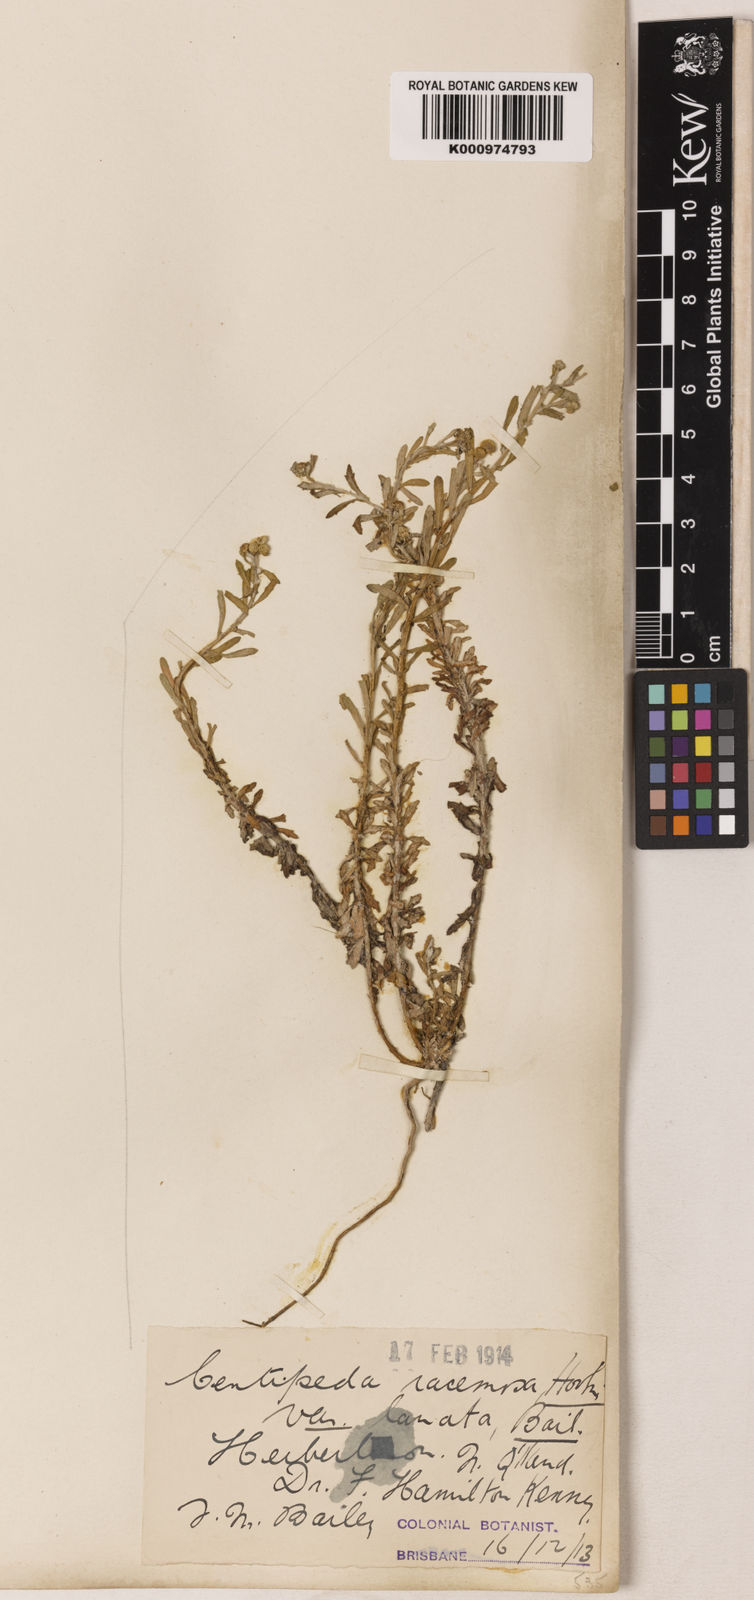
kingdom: Plantae
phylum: Tracheophyta
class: Magnoliopsida
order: Asterales
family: Asteraceae
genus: Centipeda
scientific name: Centipeda racemosa
